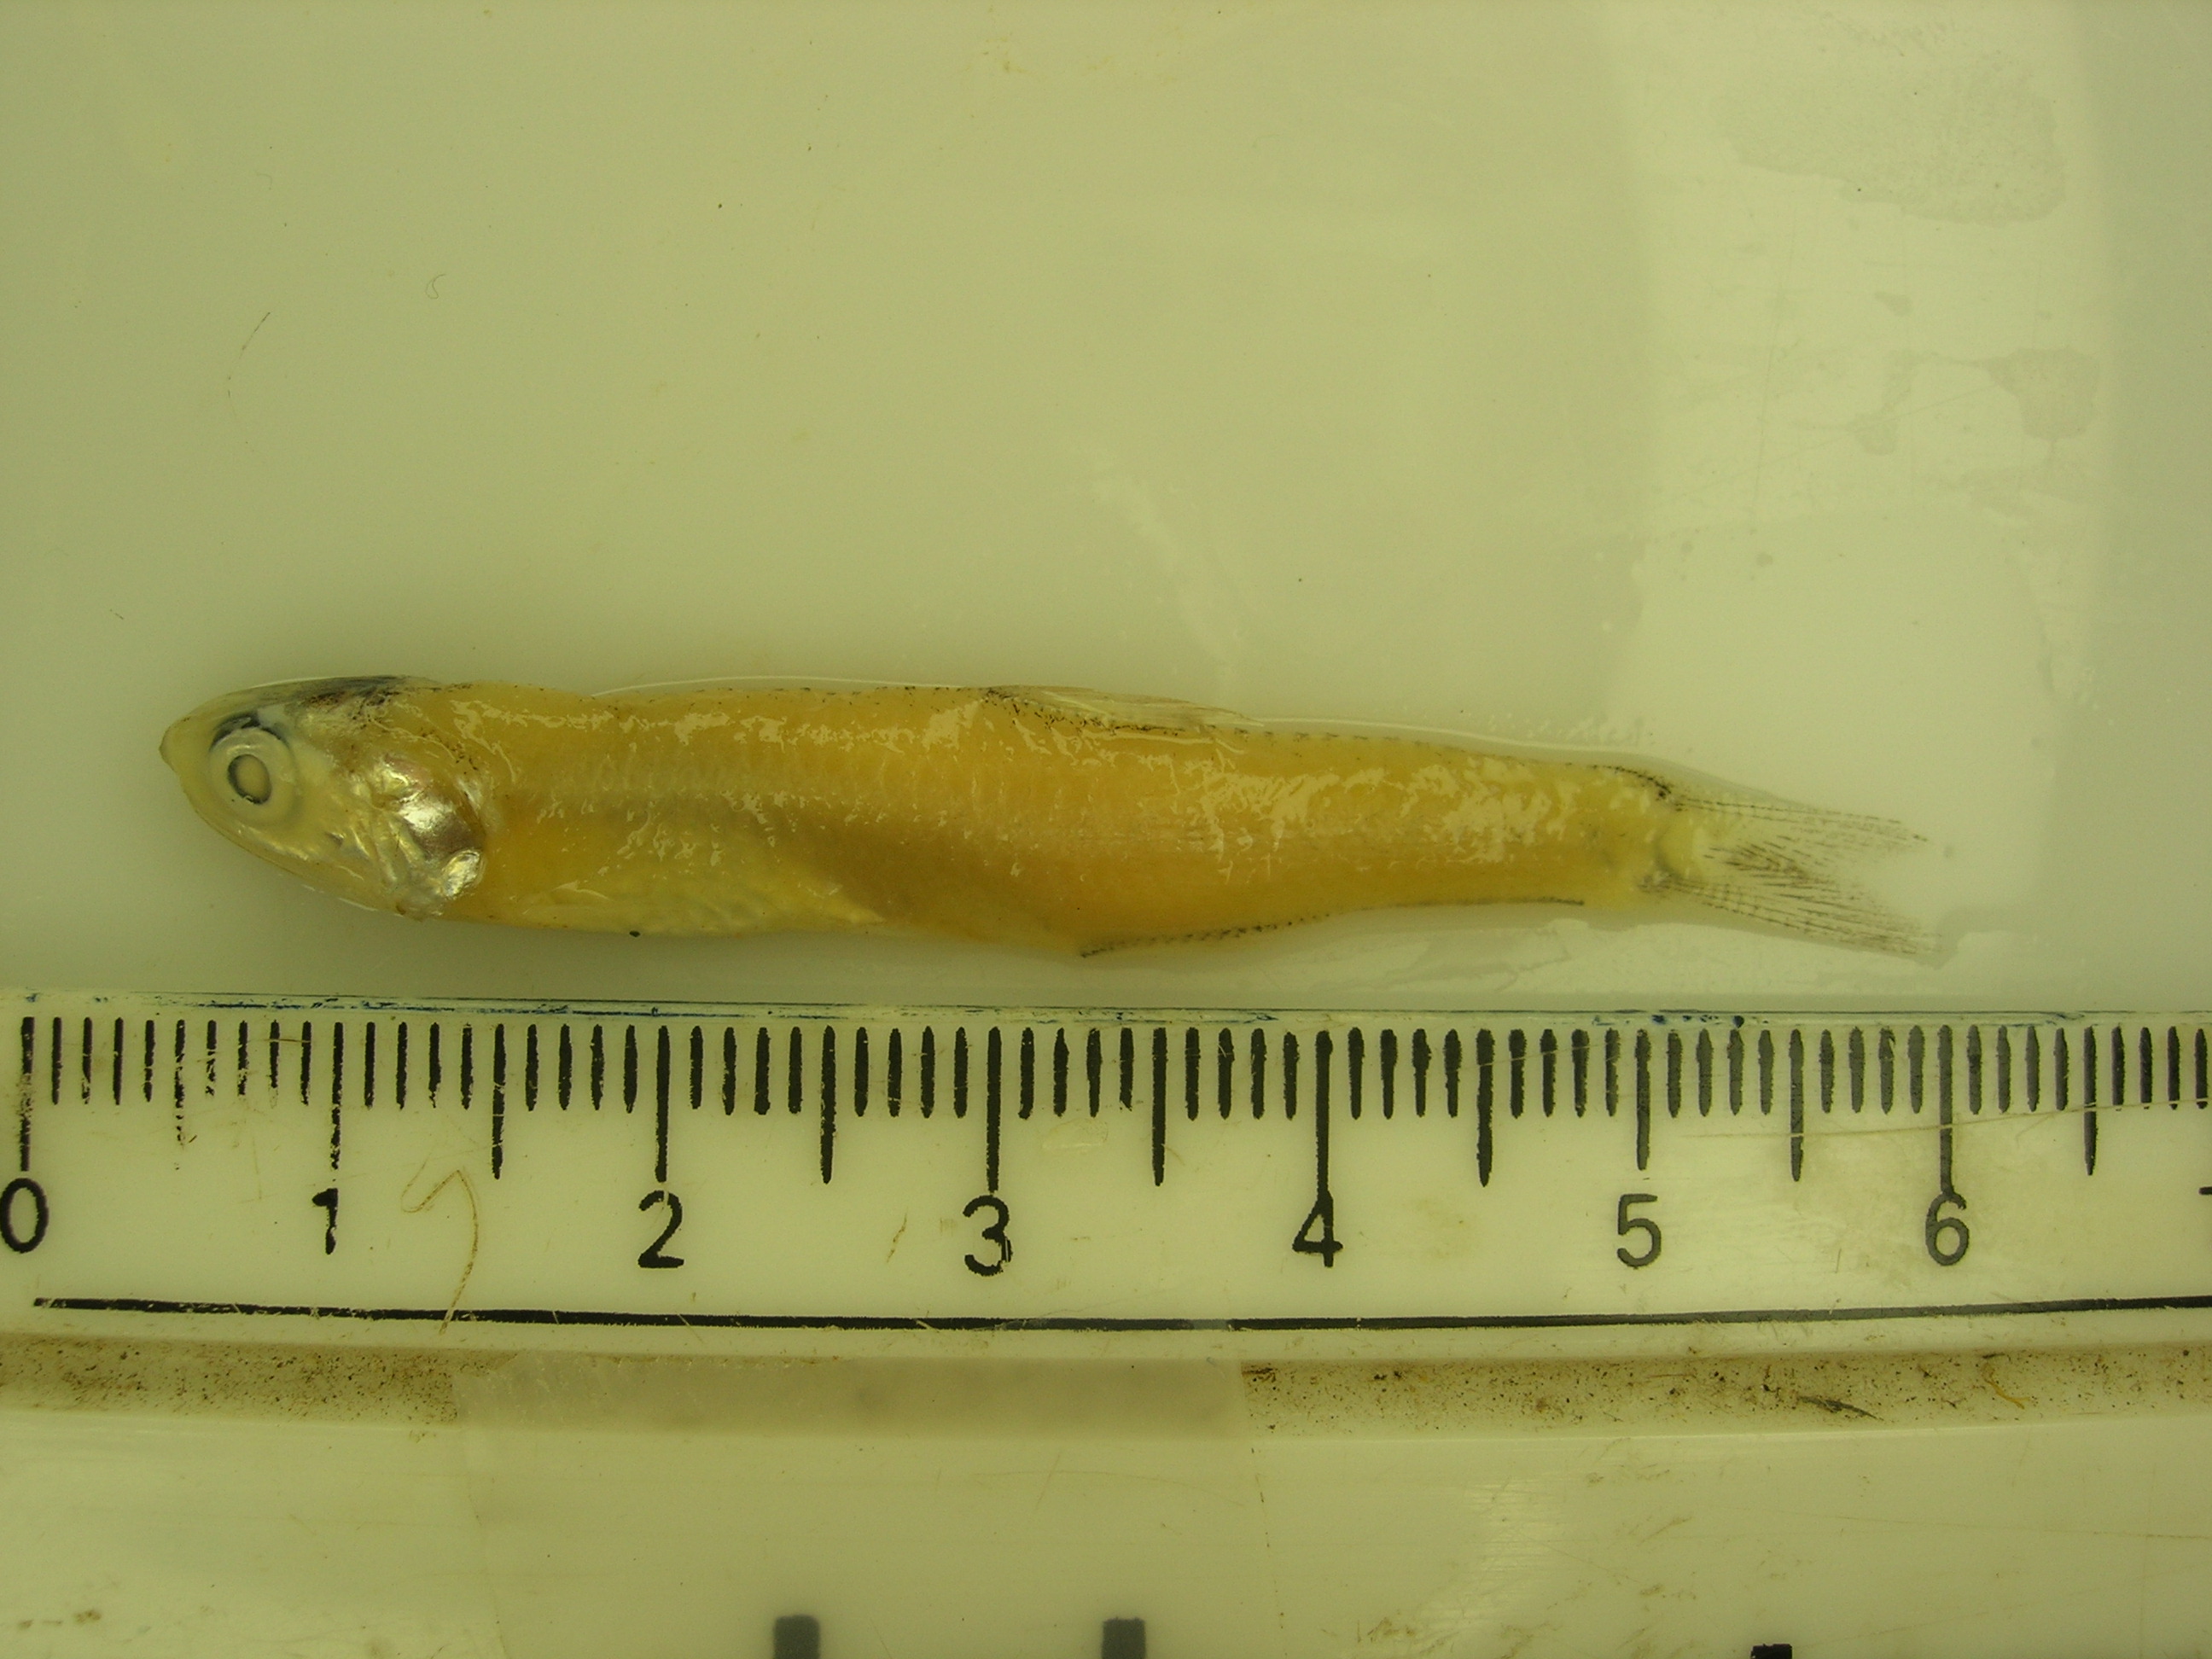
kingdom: Animalia
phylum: Chordata
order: Clupeiformes
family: Engraulidae
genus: Stolephorus
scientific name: Stolephorus indicus
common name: Indian anchovy
